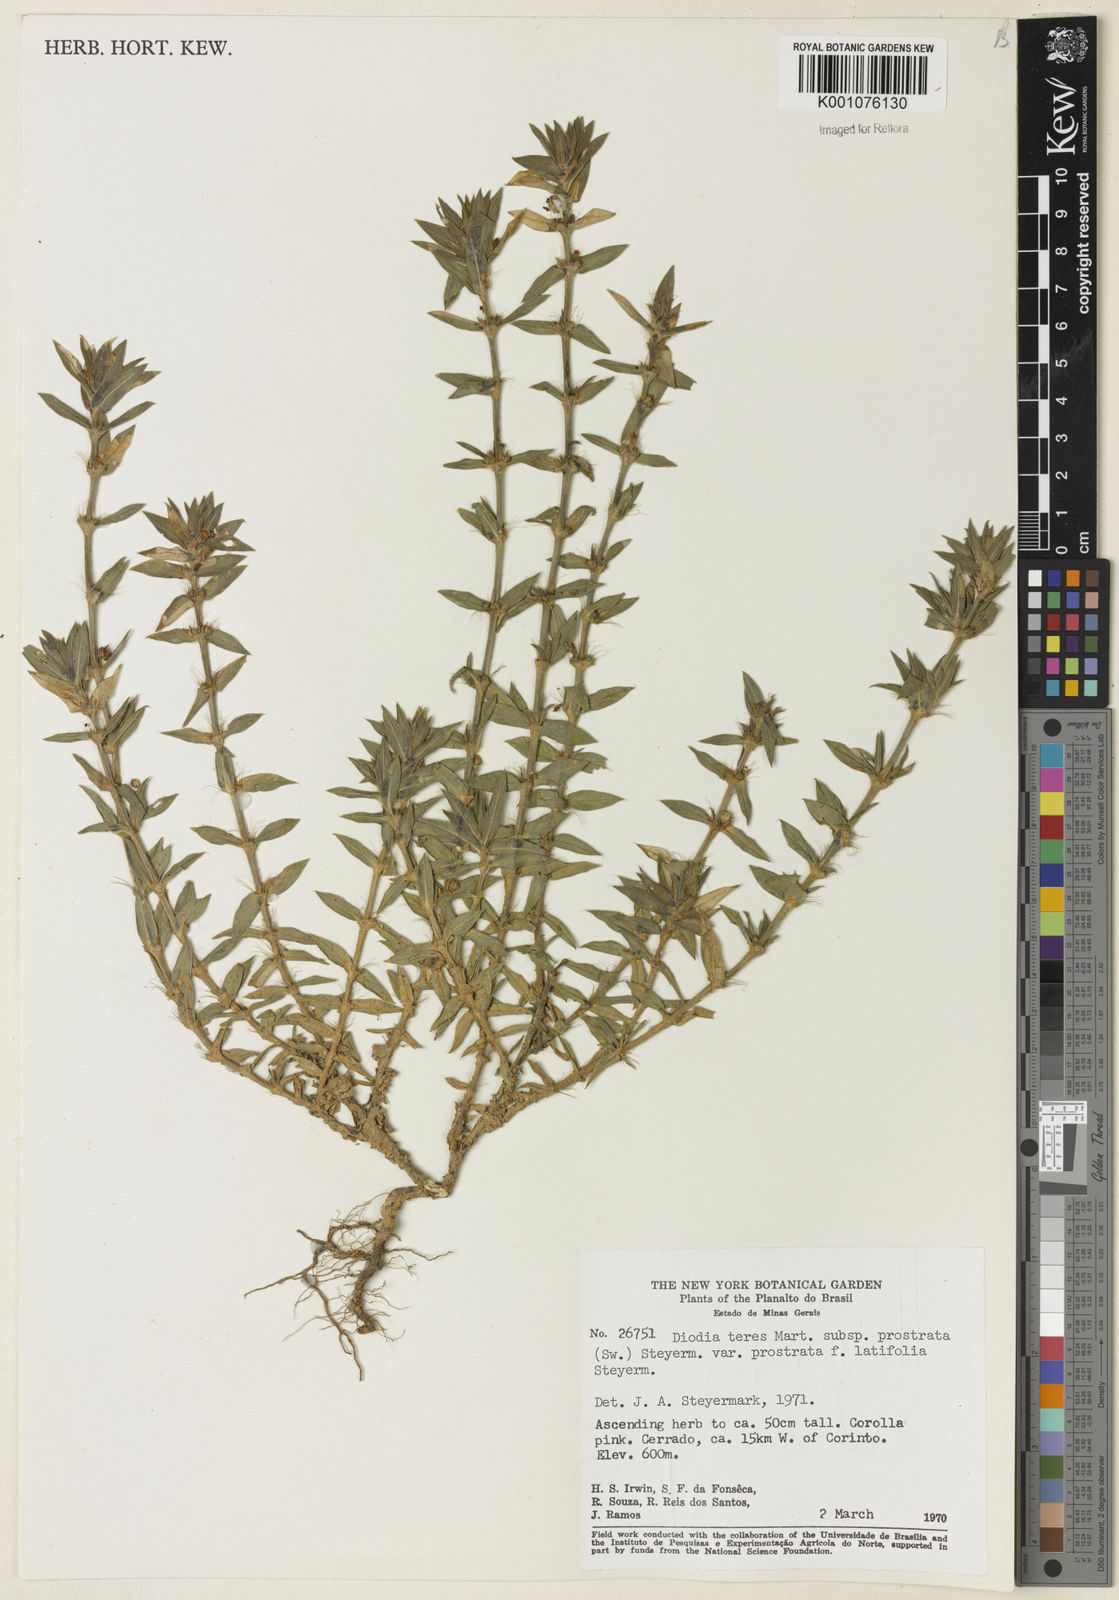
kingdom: Plantae
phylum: Tracheophyta
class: Magnoliopsida
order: Gentianales
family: Rubiaceae
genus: Hexasepalum
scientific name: Hexasepalum teres
